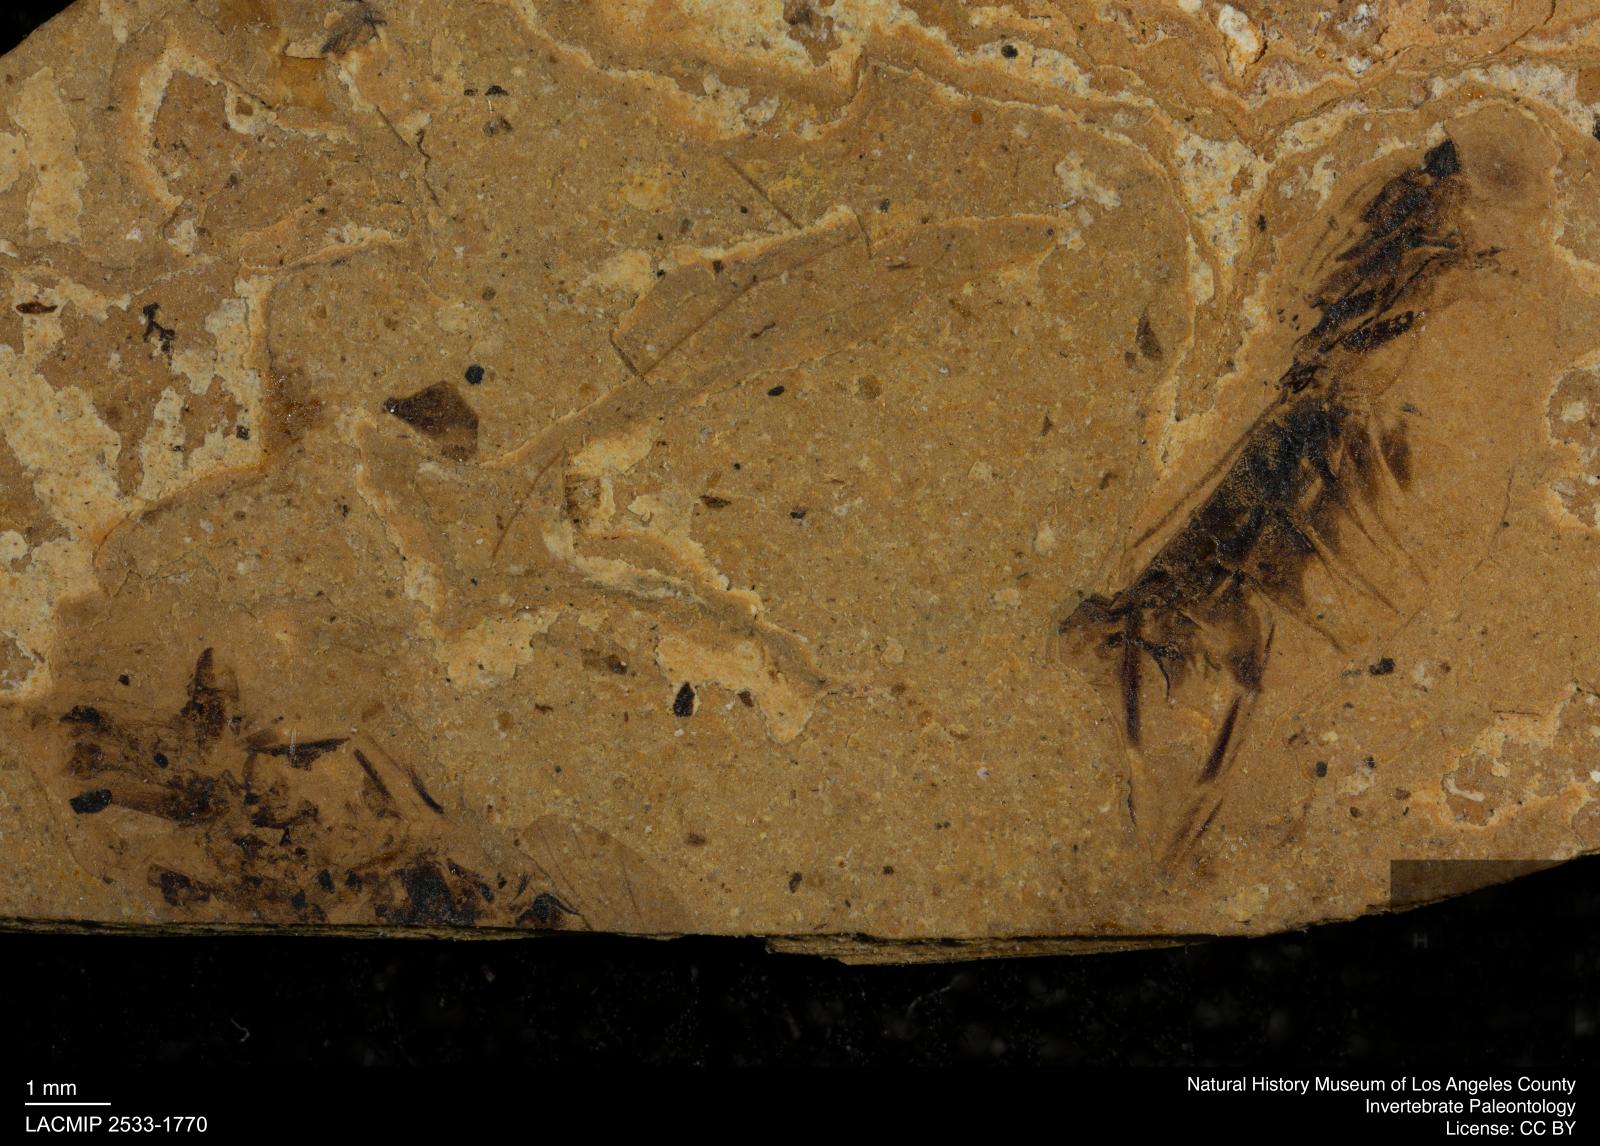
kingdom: Animalia
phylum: Arthropoda
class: Insecta
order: Hemiptera
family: Notonectidae
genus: Notonecta
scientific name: Notonecta
